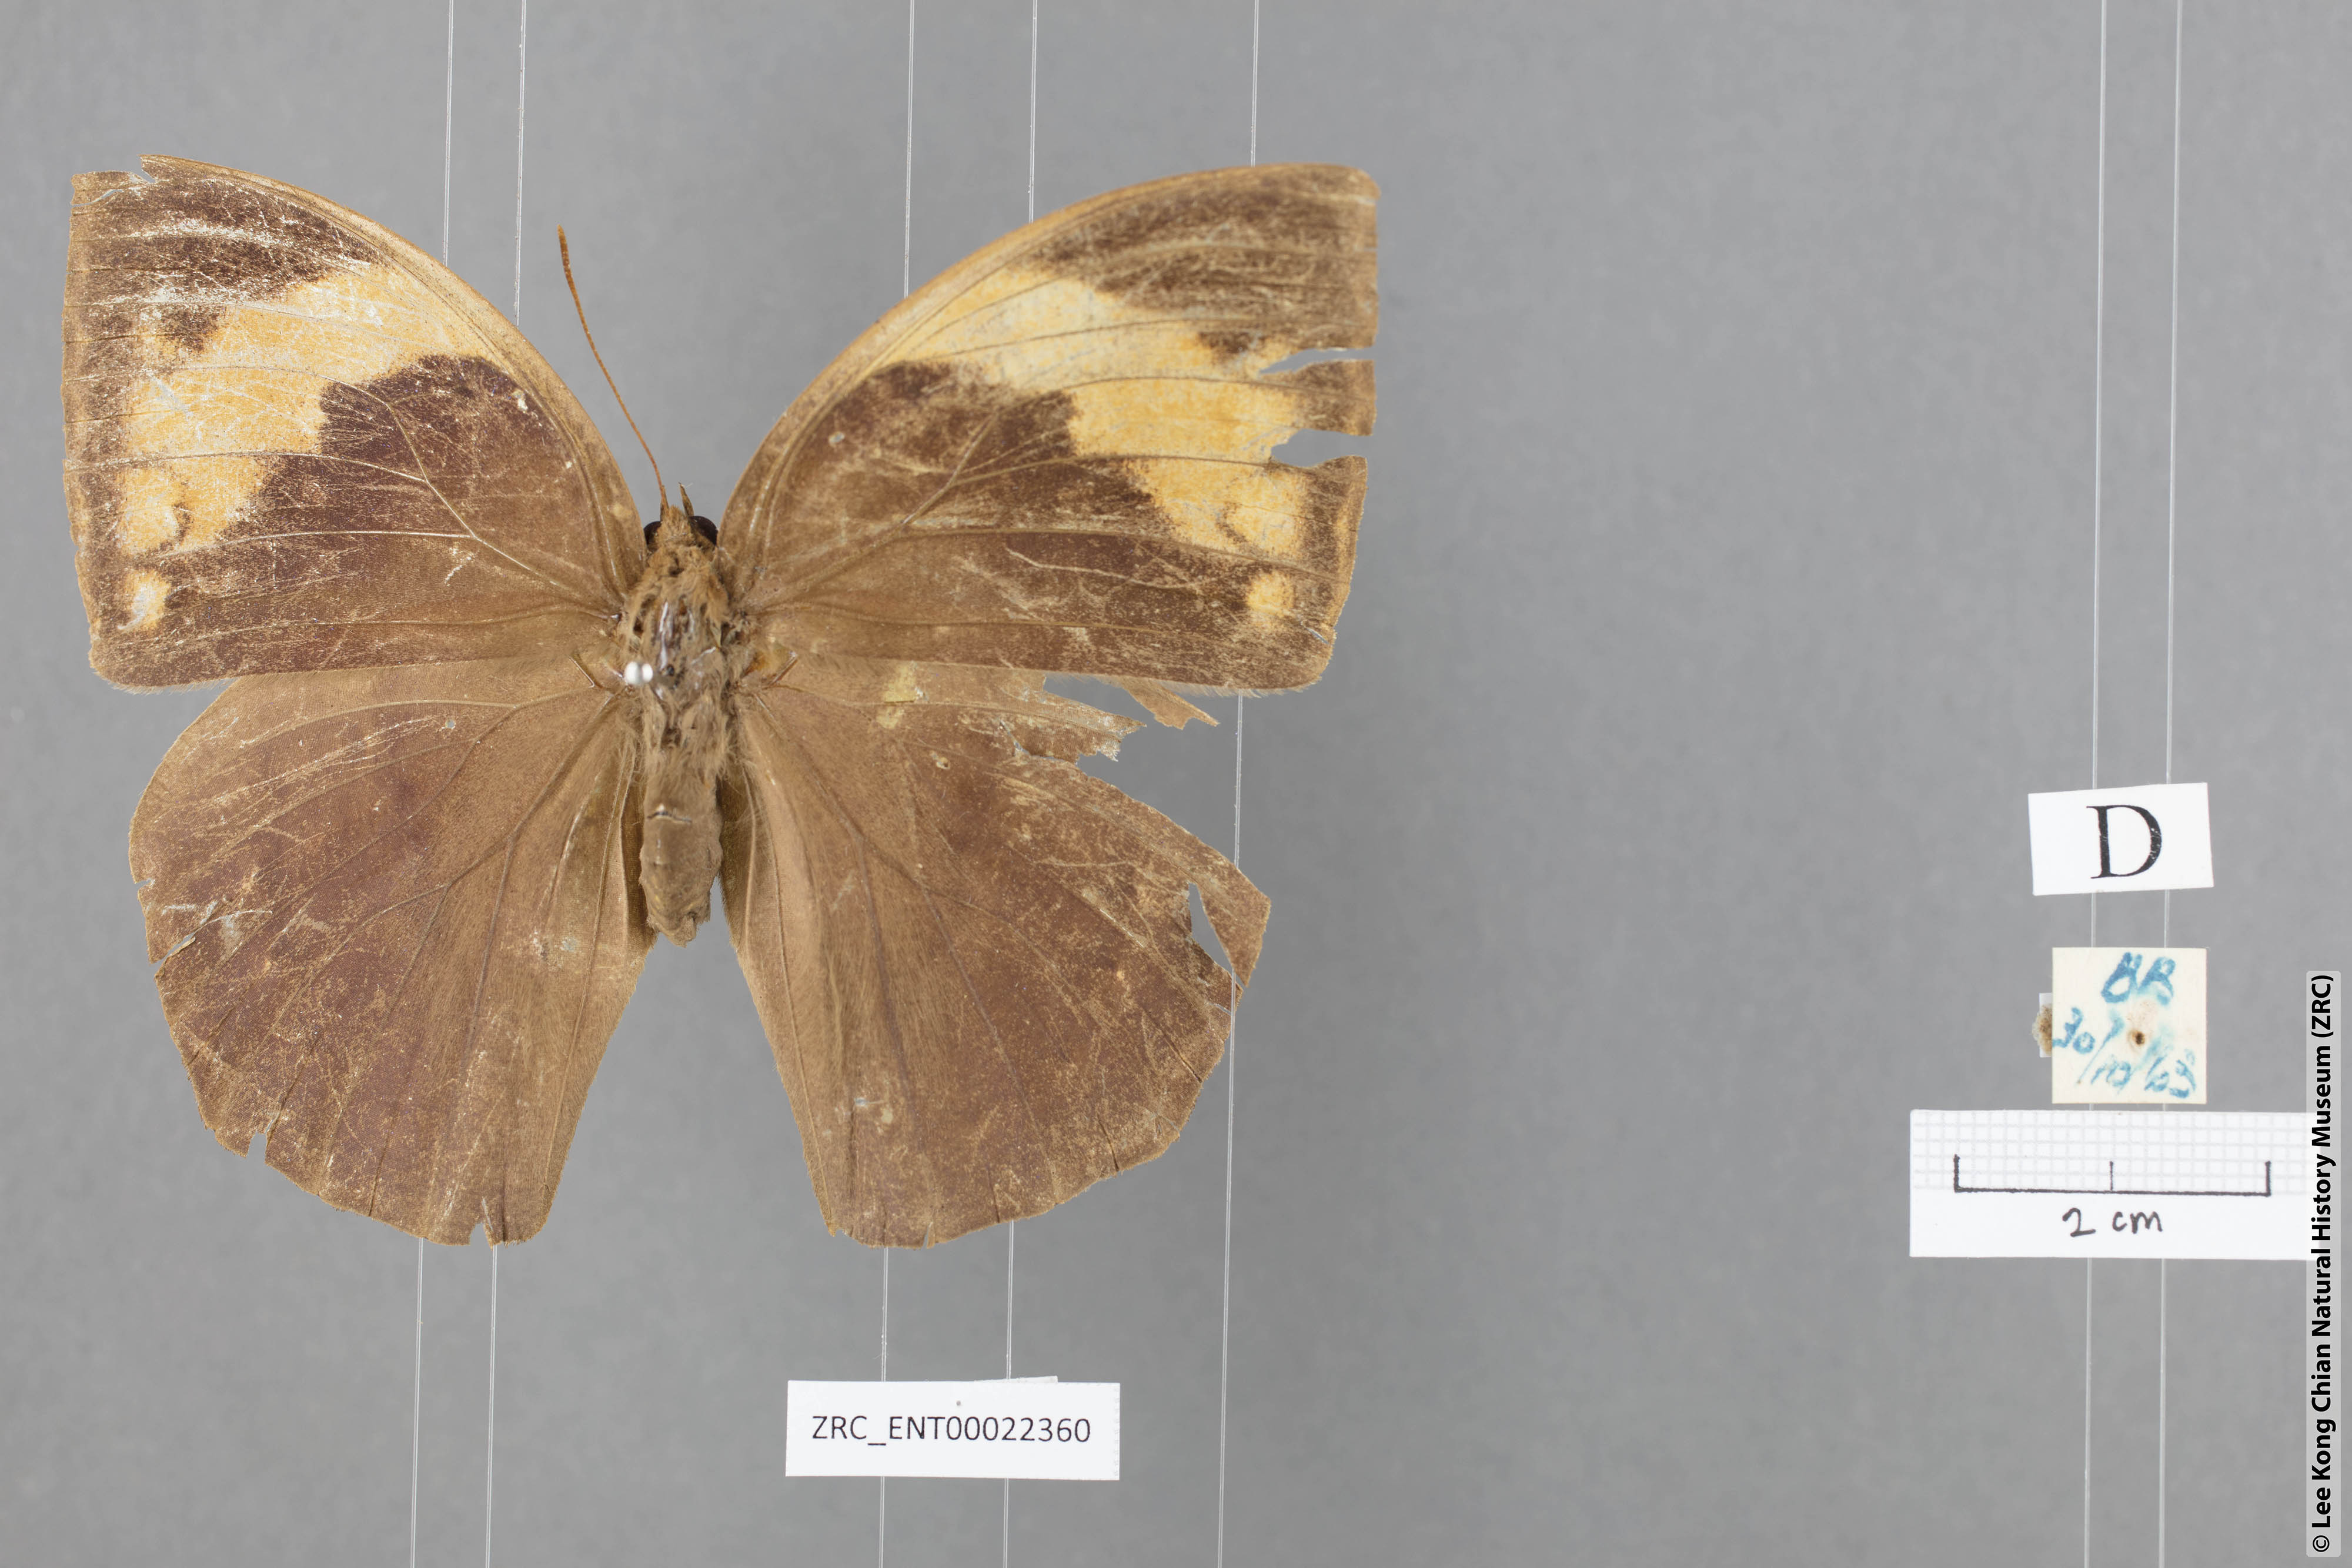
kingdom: Animalia
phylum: Arthropoda
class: Insecta
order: Lepidoptera
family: Nymphalidae
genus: Discophora
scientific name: Discophora timora
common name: Great duffer
